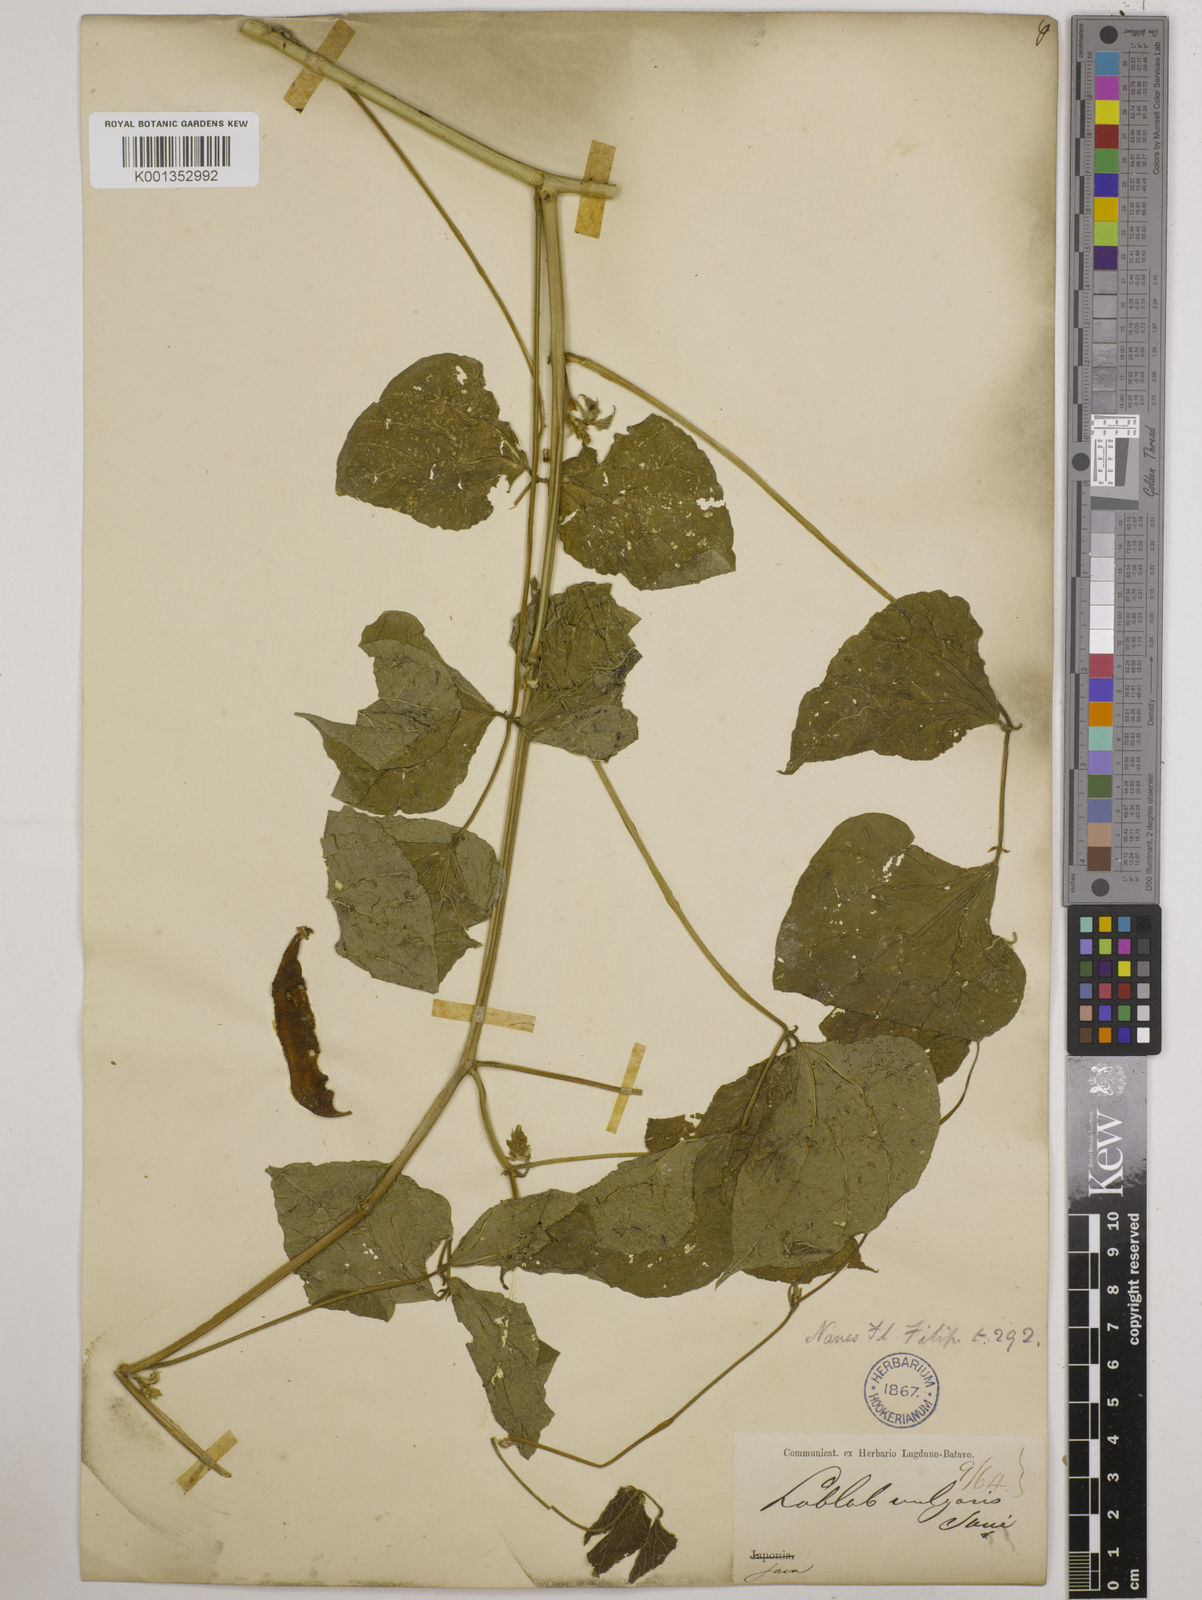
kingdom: Plantae
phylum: Tracheophyta
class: Magnoliopsida
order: Fabales
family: Fabaceae
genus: Lablab
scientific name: Lablab purpureus
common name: Lablab-bean
